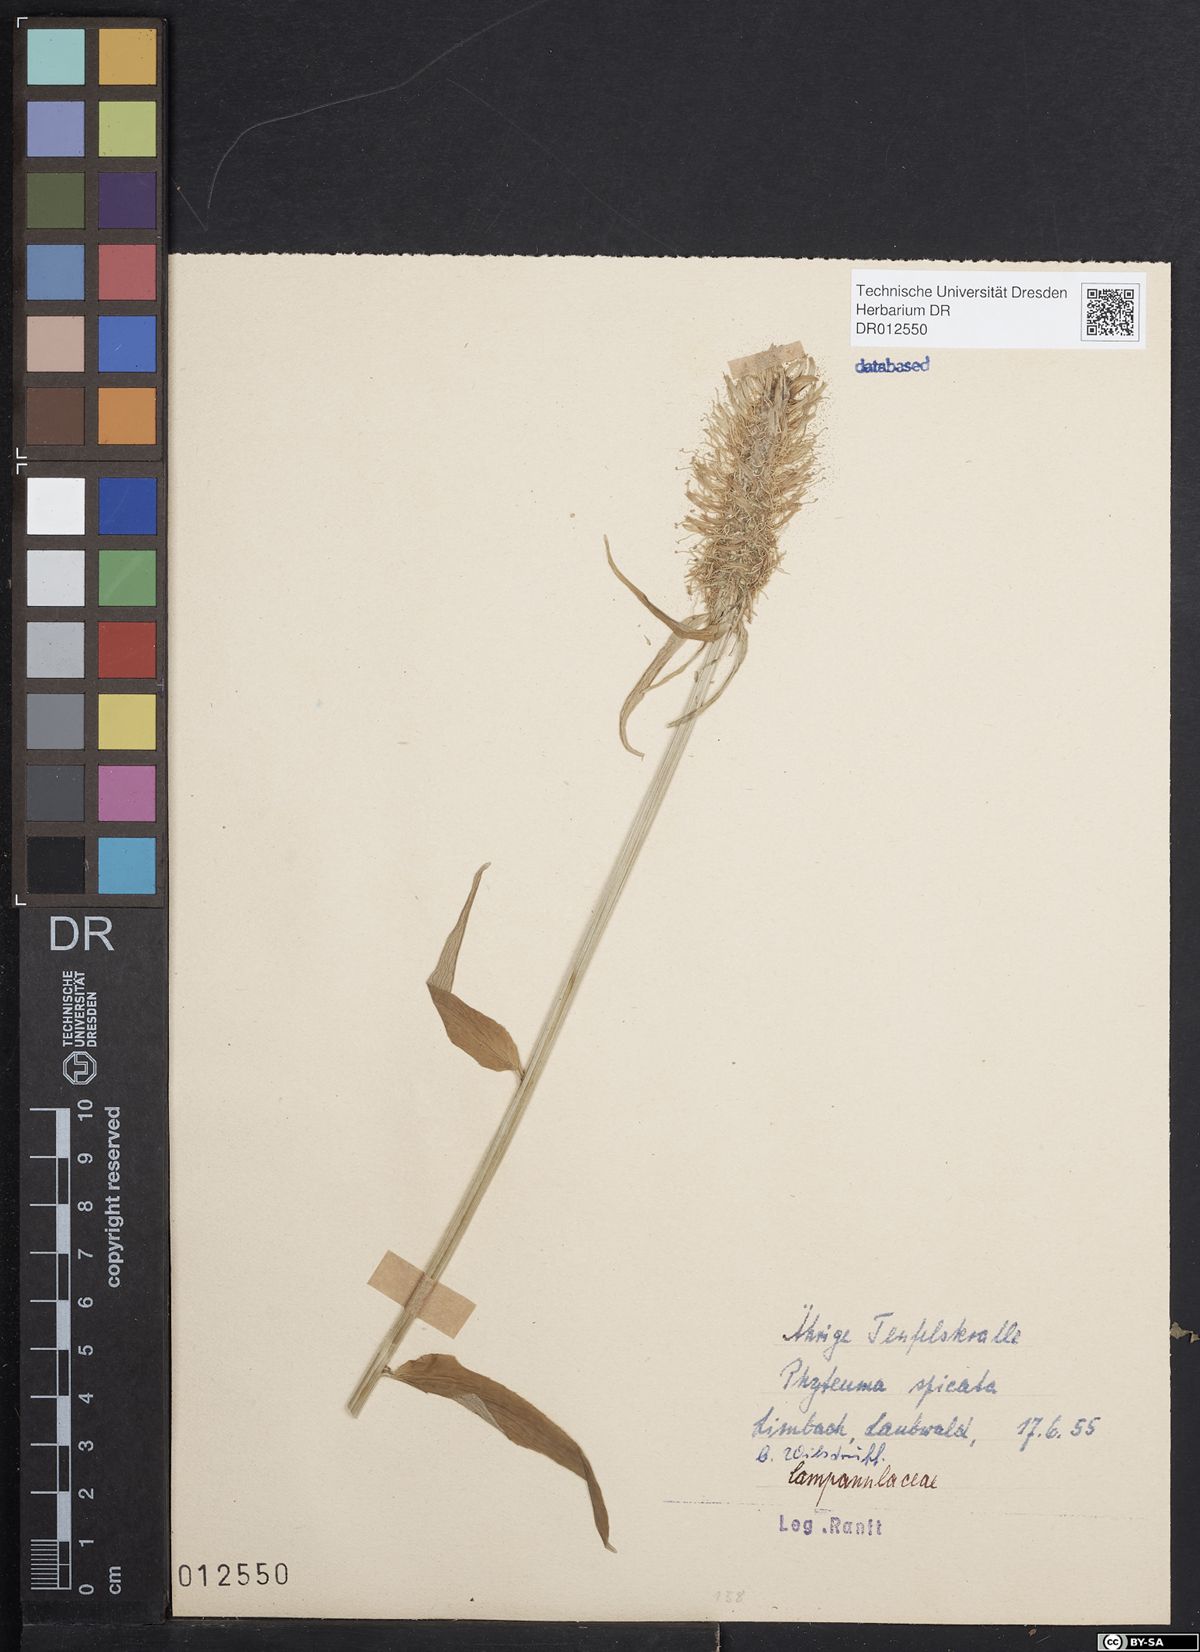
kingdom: Plantae
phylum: Tracheophyta
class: Magnoliopsida
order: Asterales
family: Campanulaceae
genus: Phyteuma
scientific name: Phyteuma spicatum
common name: Spiked rampion
